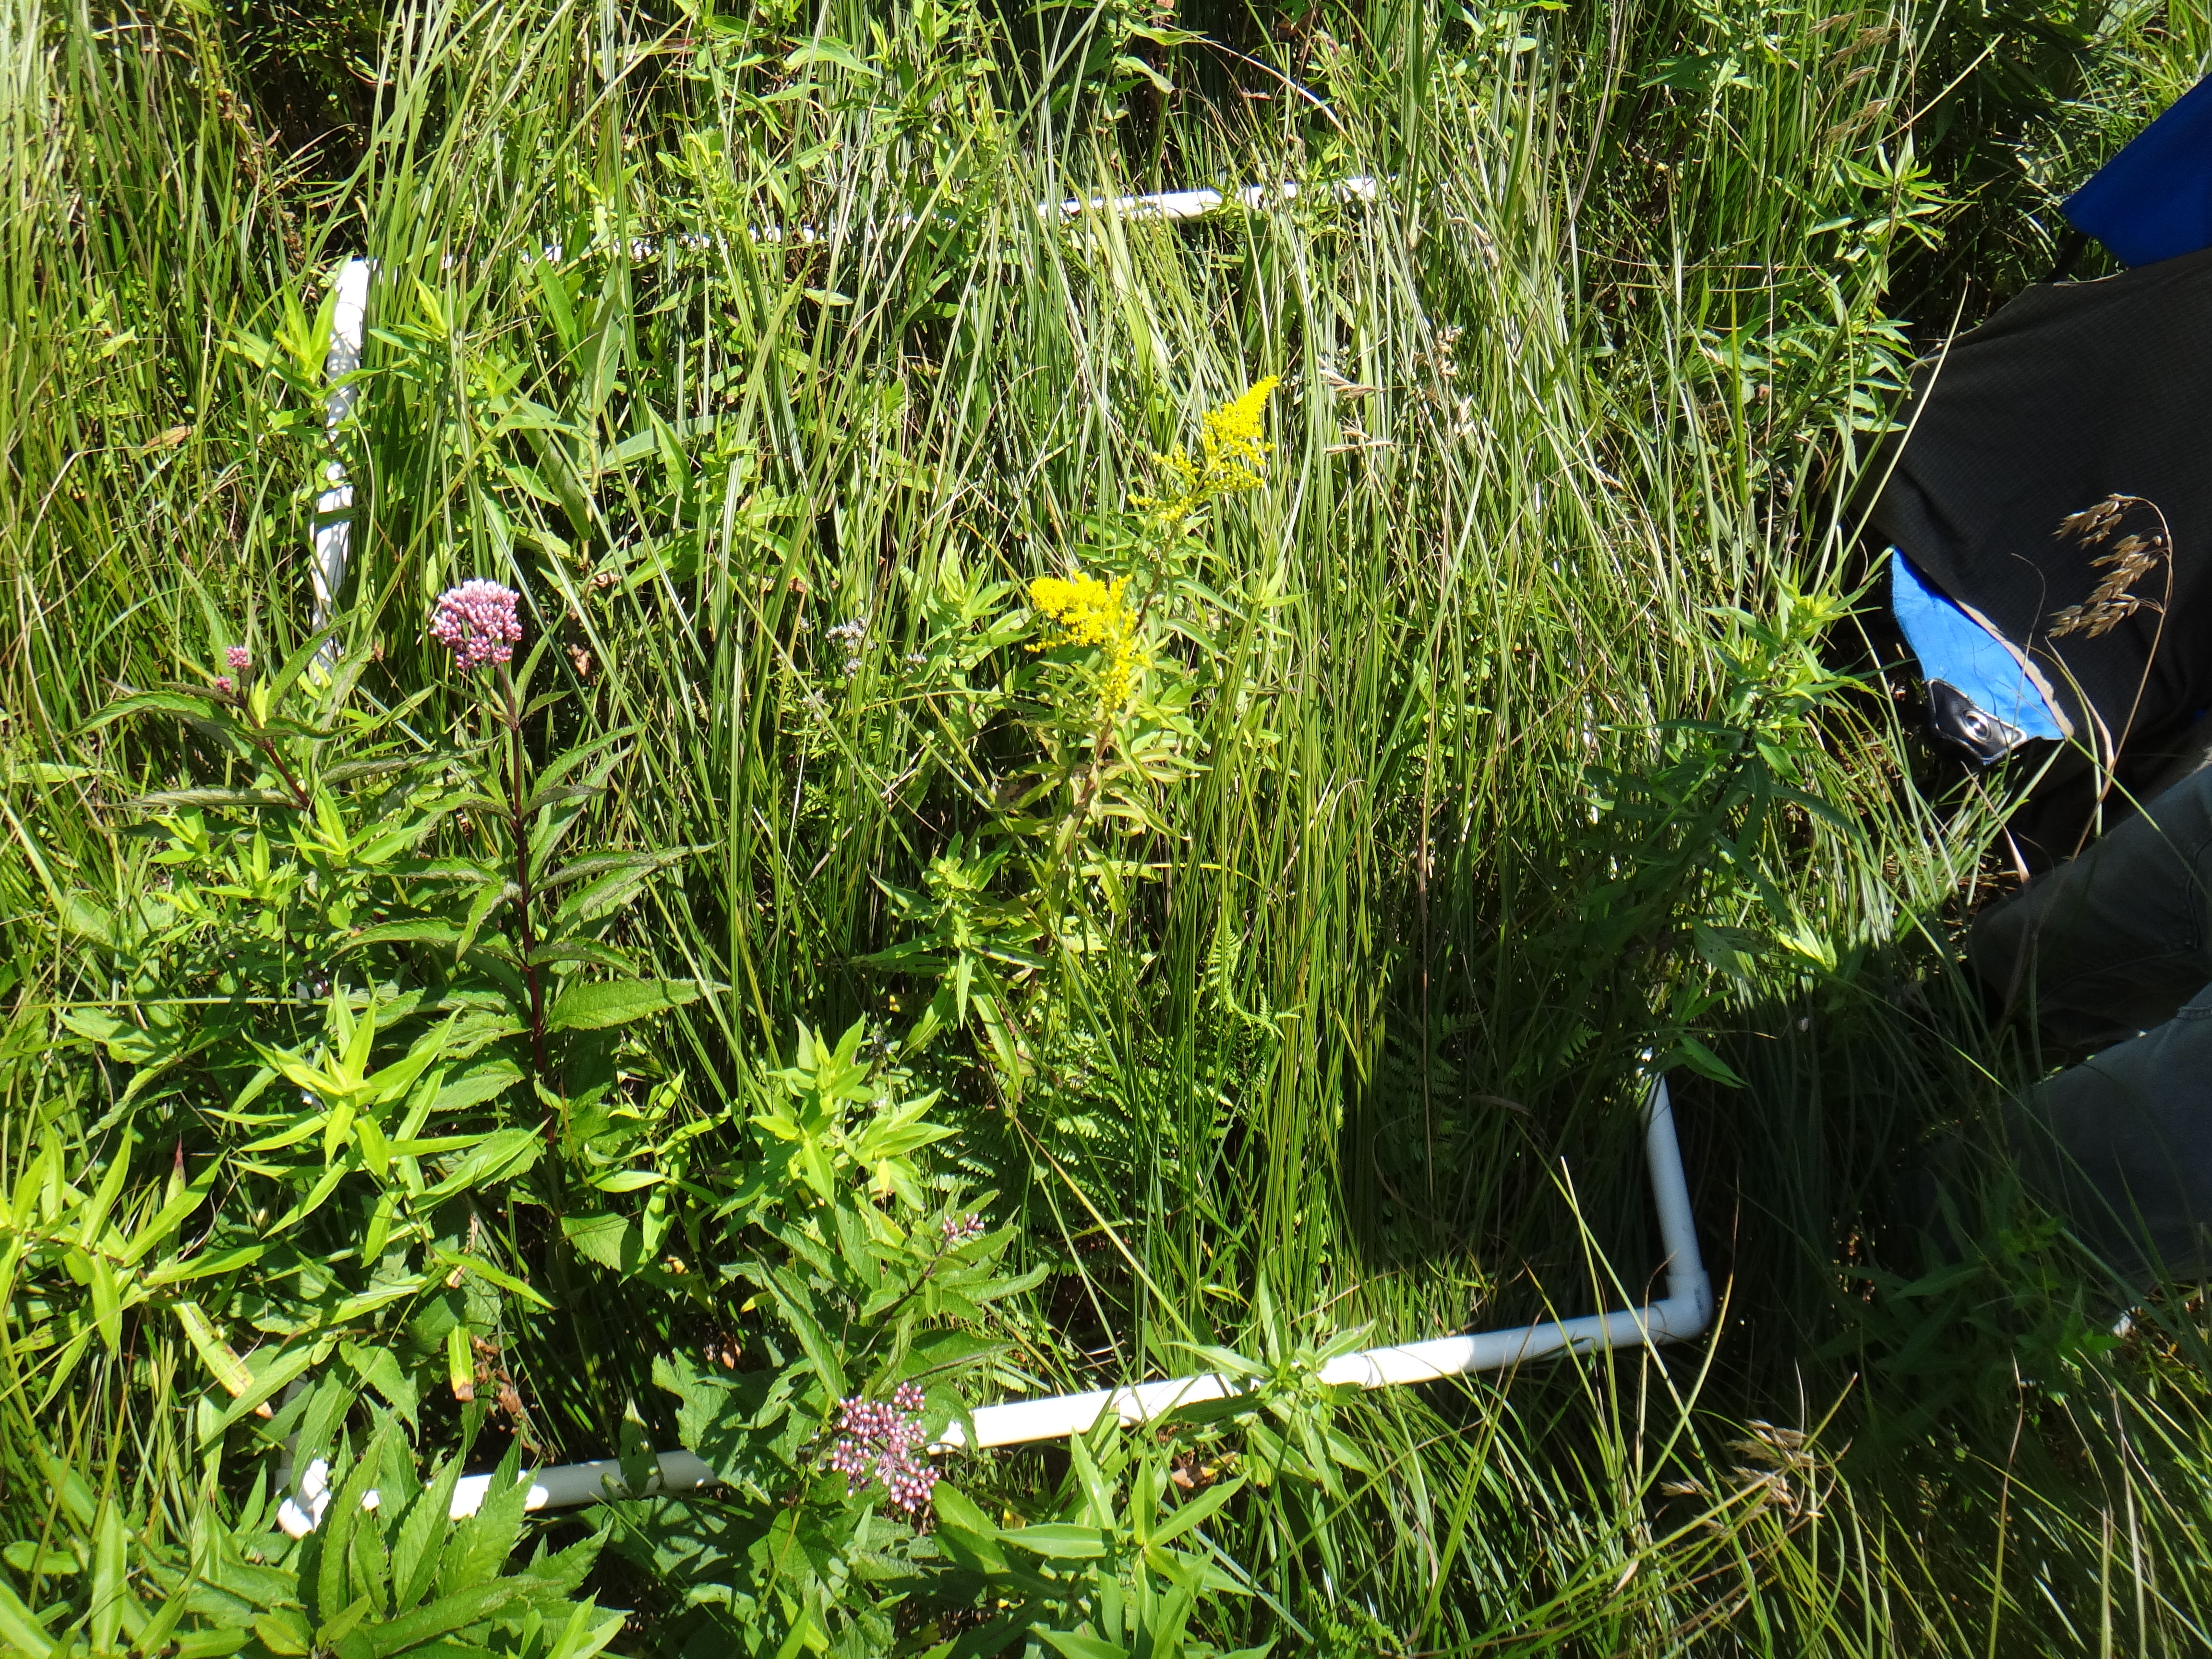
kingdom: Plantae
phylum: Tracheophyta
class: Liliopsida
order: Poales
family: Cyperaceae
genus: Carex
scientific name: Carex stricta
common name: Hummock sedge
